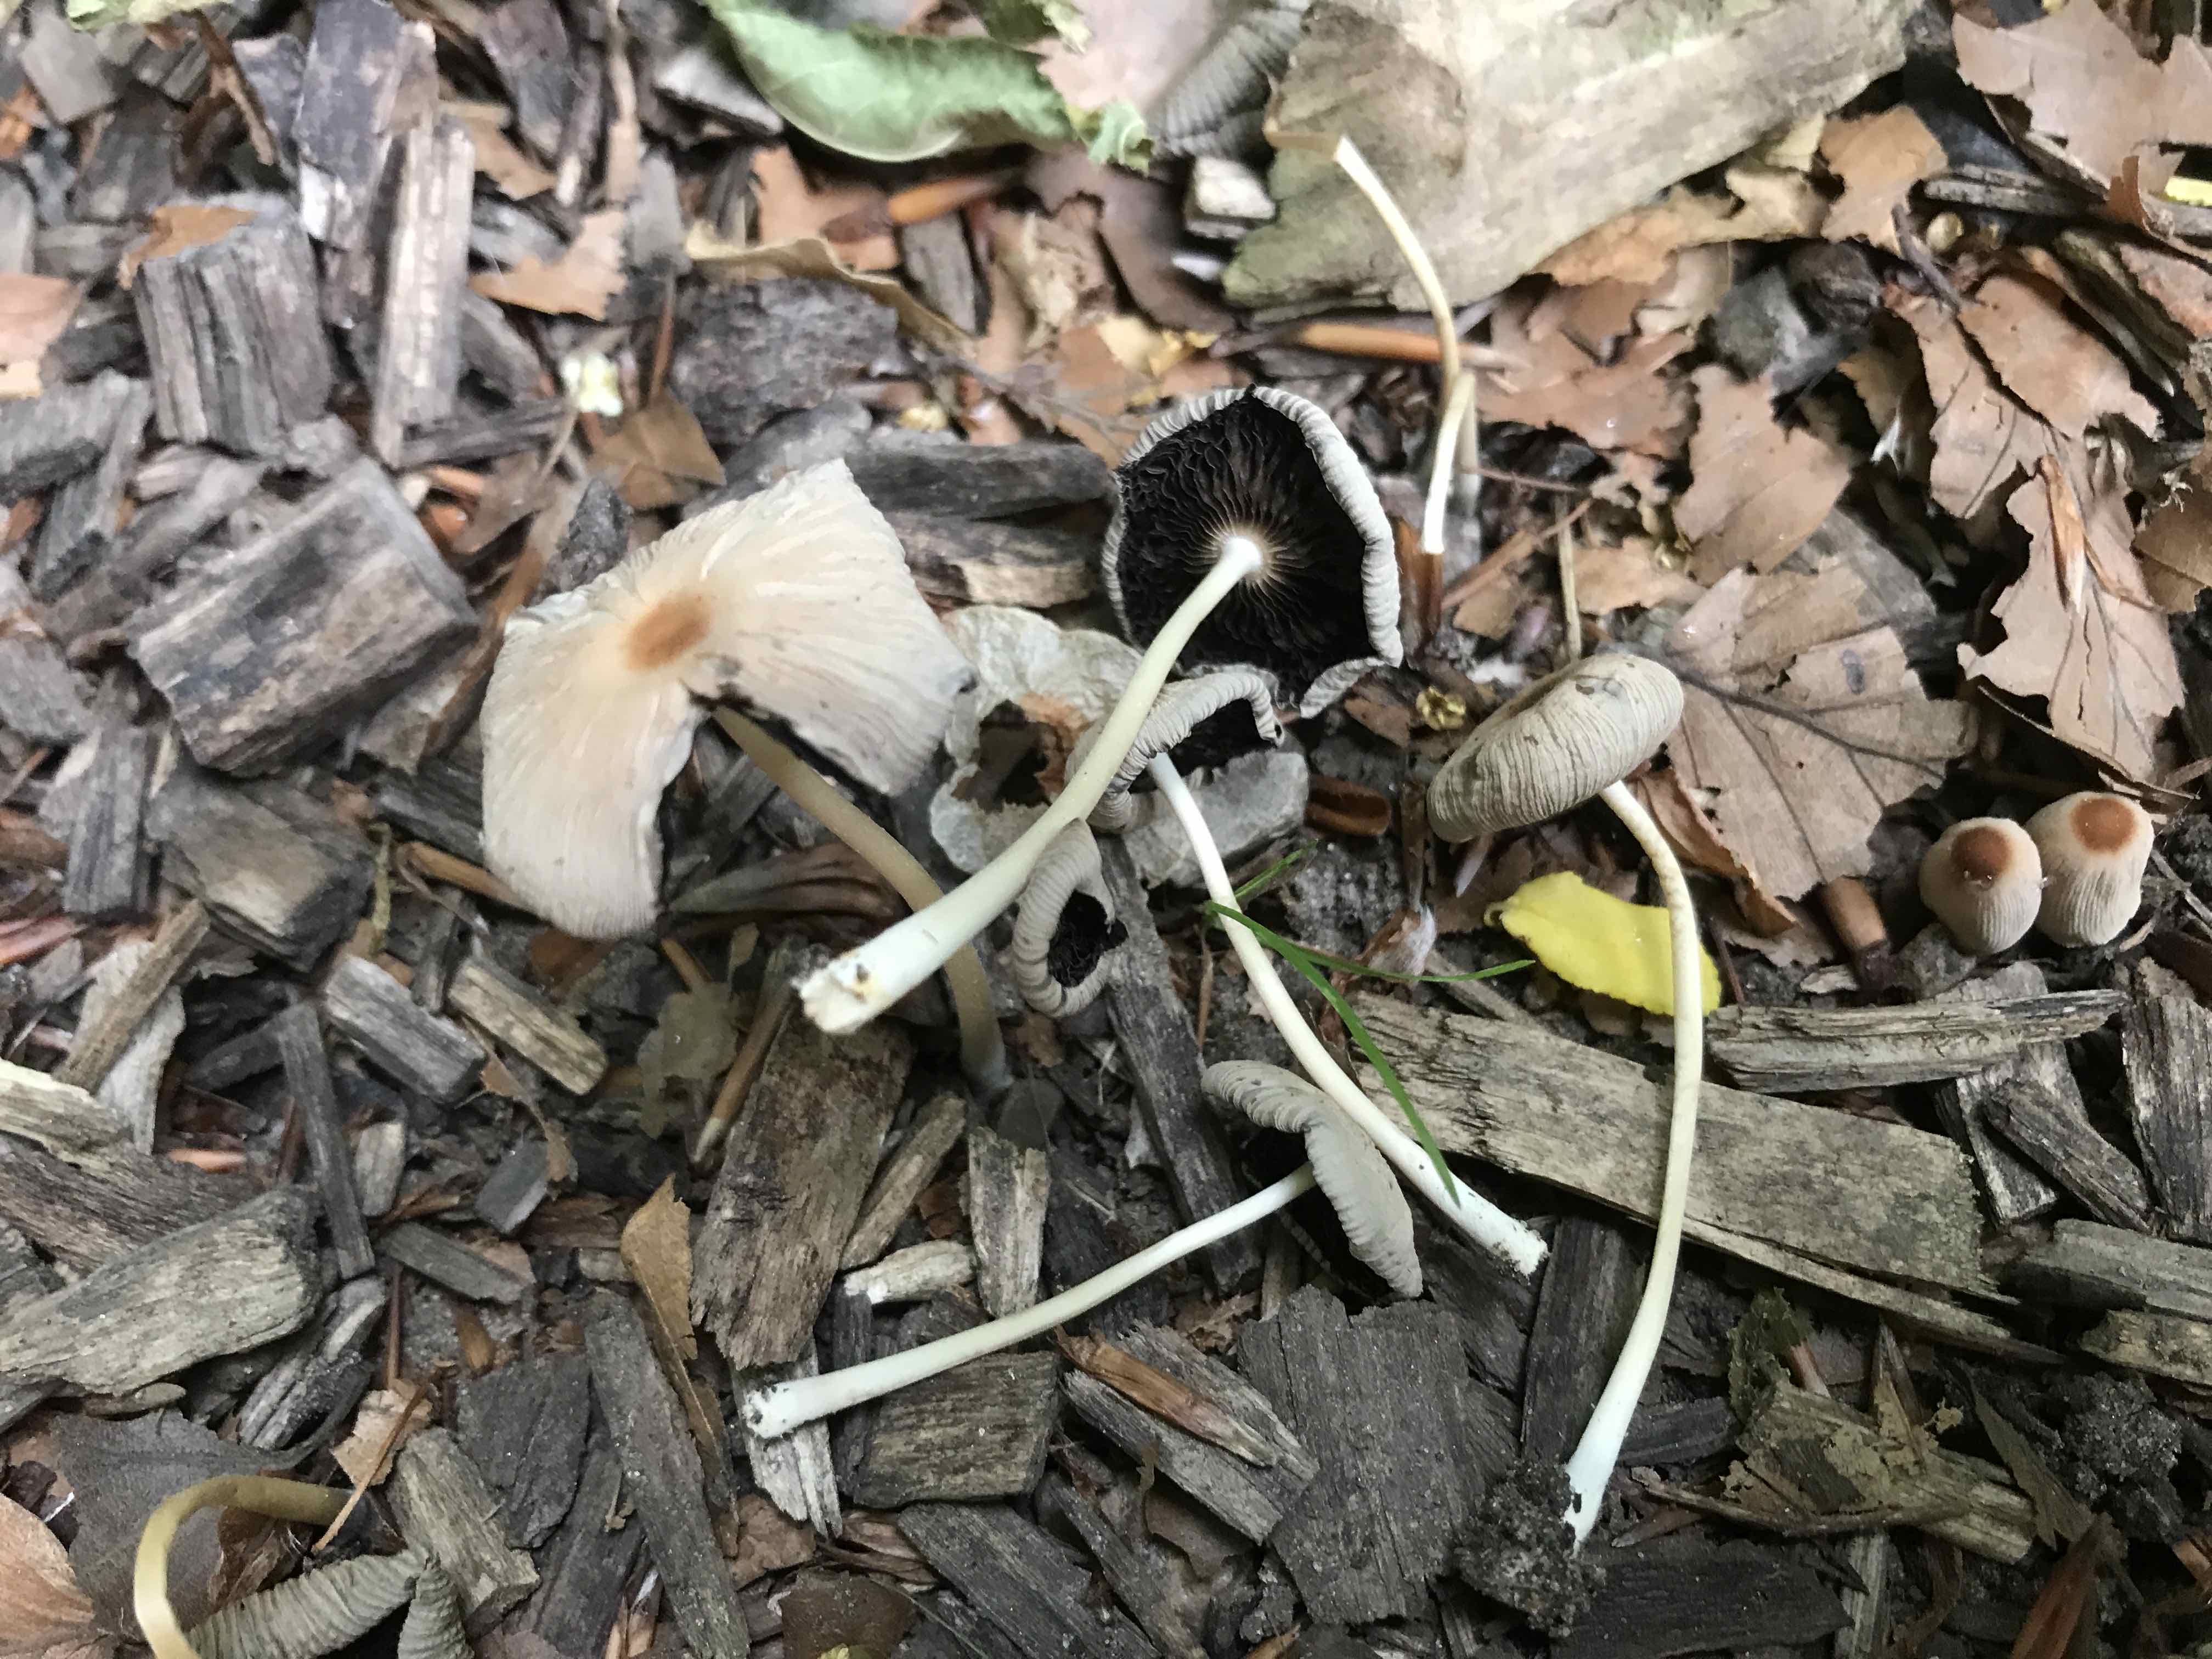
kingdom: Fungi
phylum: Basidiomycota
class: Agaricomycetes
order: Agaricales
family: Psathyrellaceae
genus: Parasola
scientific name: Parasola
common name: hjulhat
